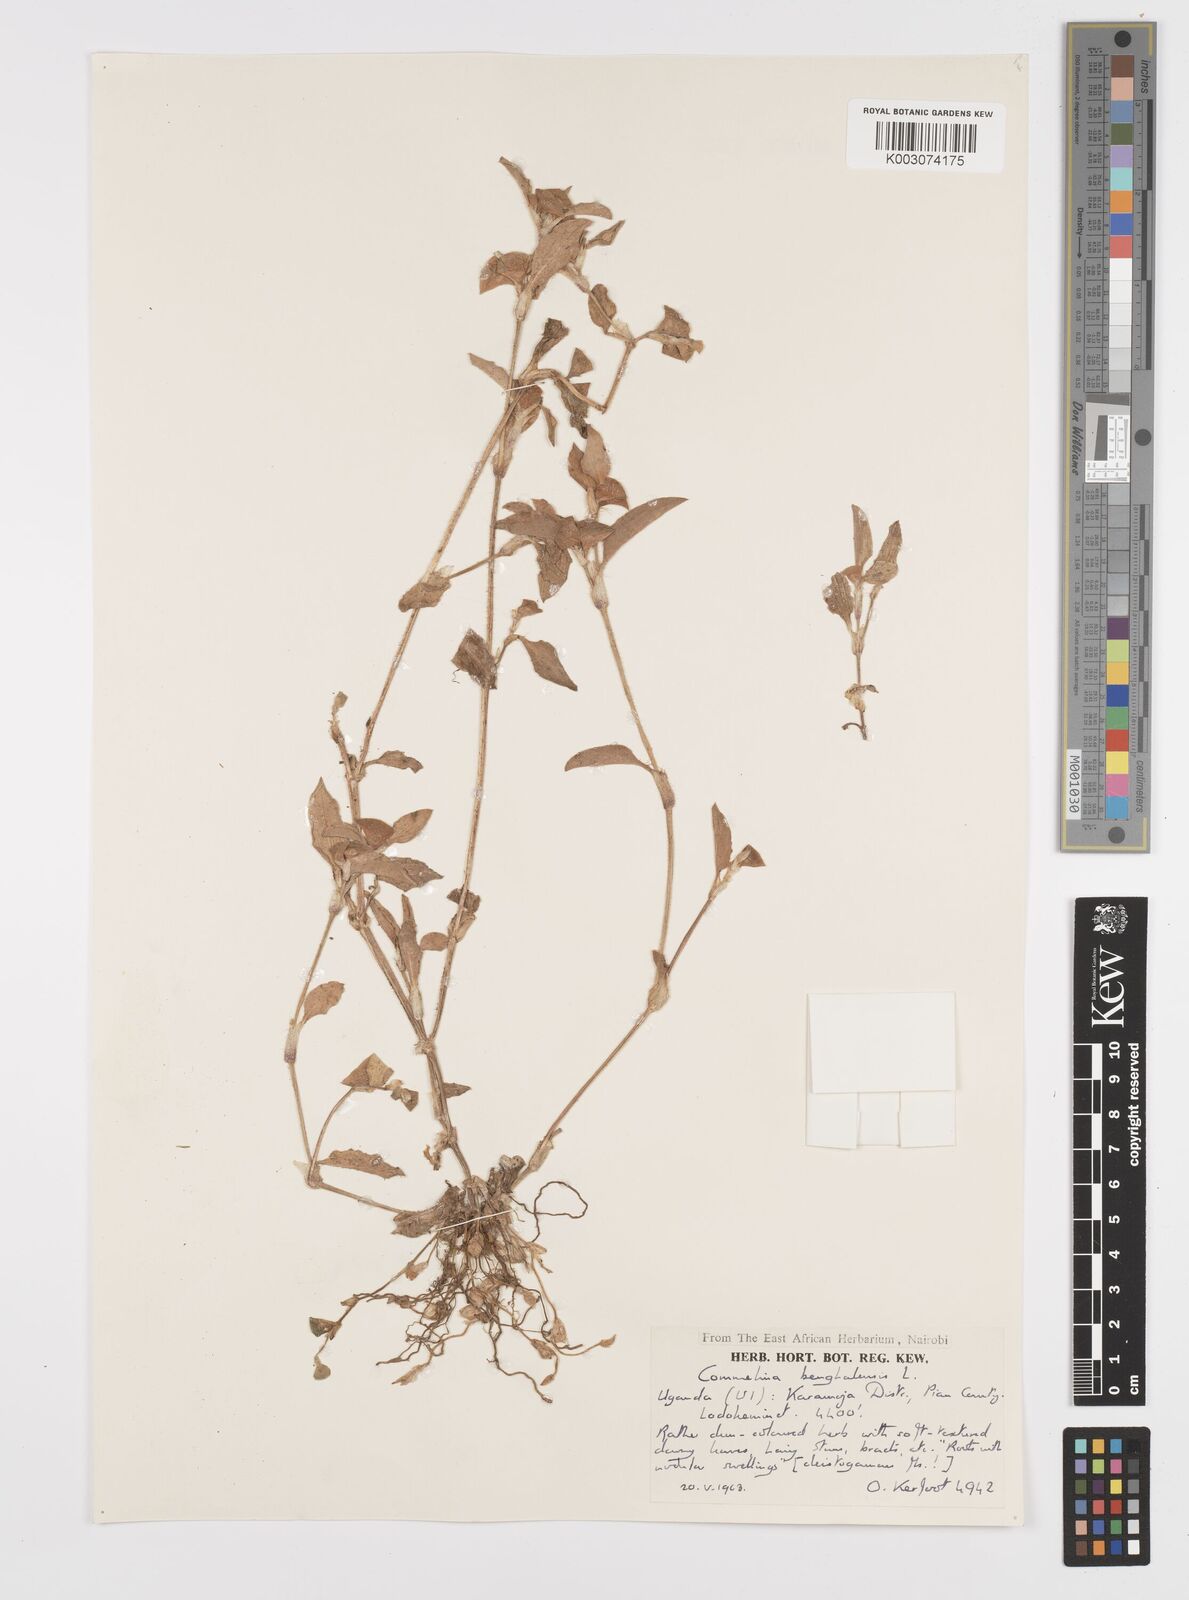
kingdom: Plantae
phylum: Tracheophyta
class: Liliopsida
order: Commelinales
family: Commelinaceae
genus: Commelina
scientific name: Commelina benghalensis
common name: Jio
